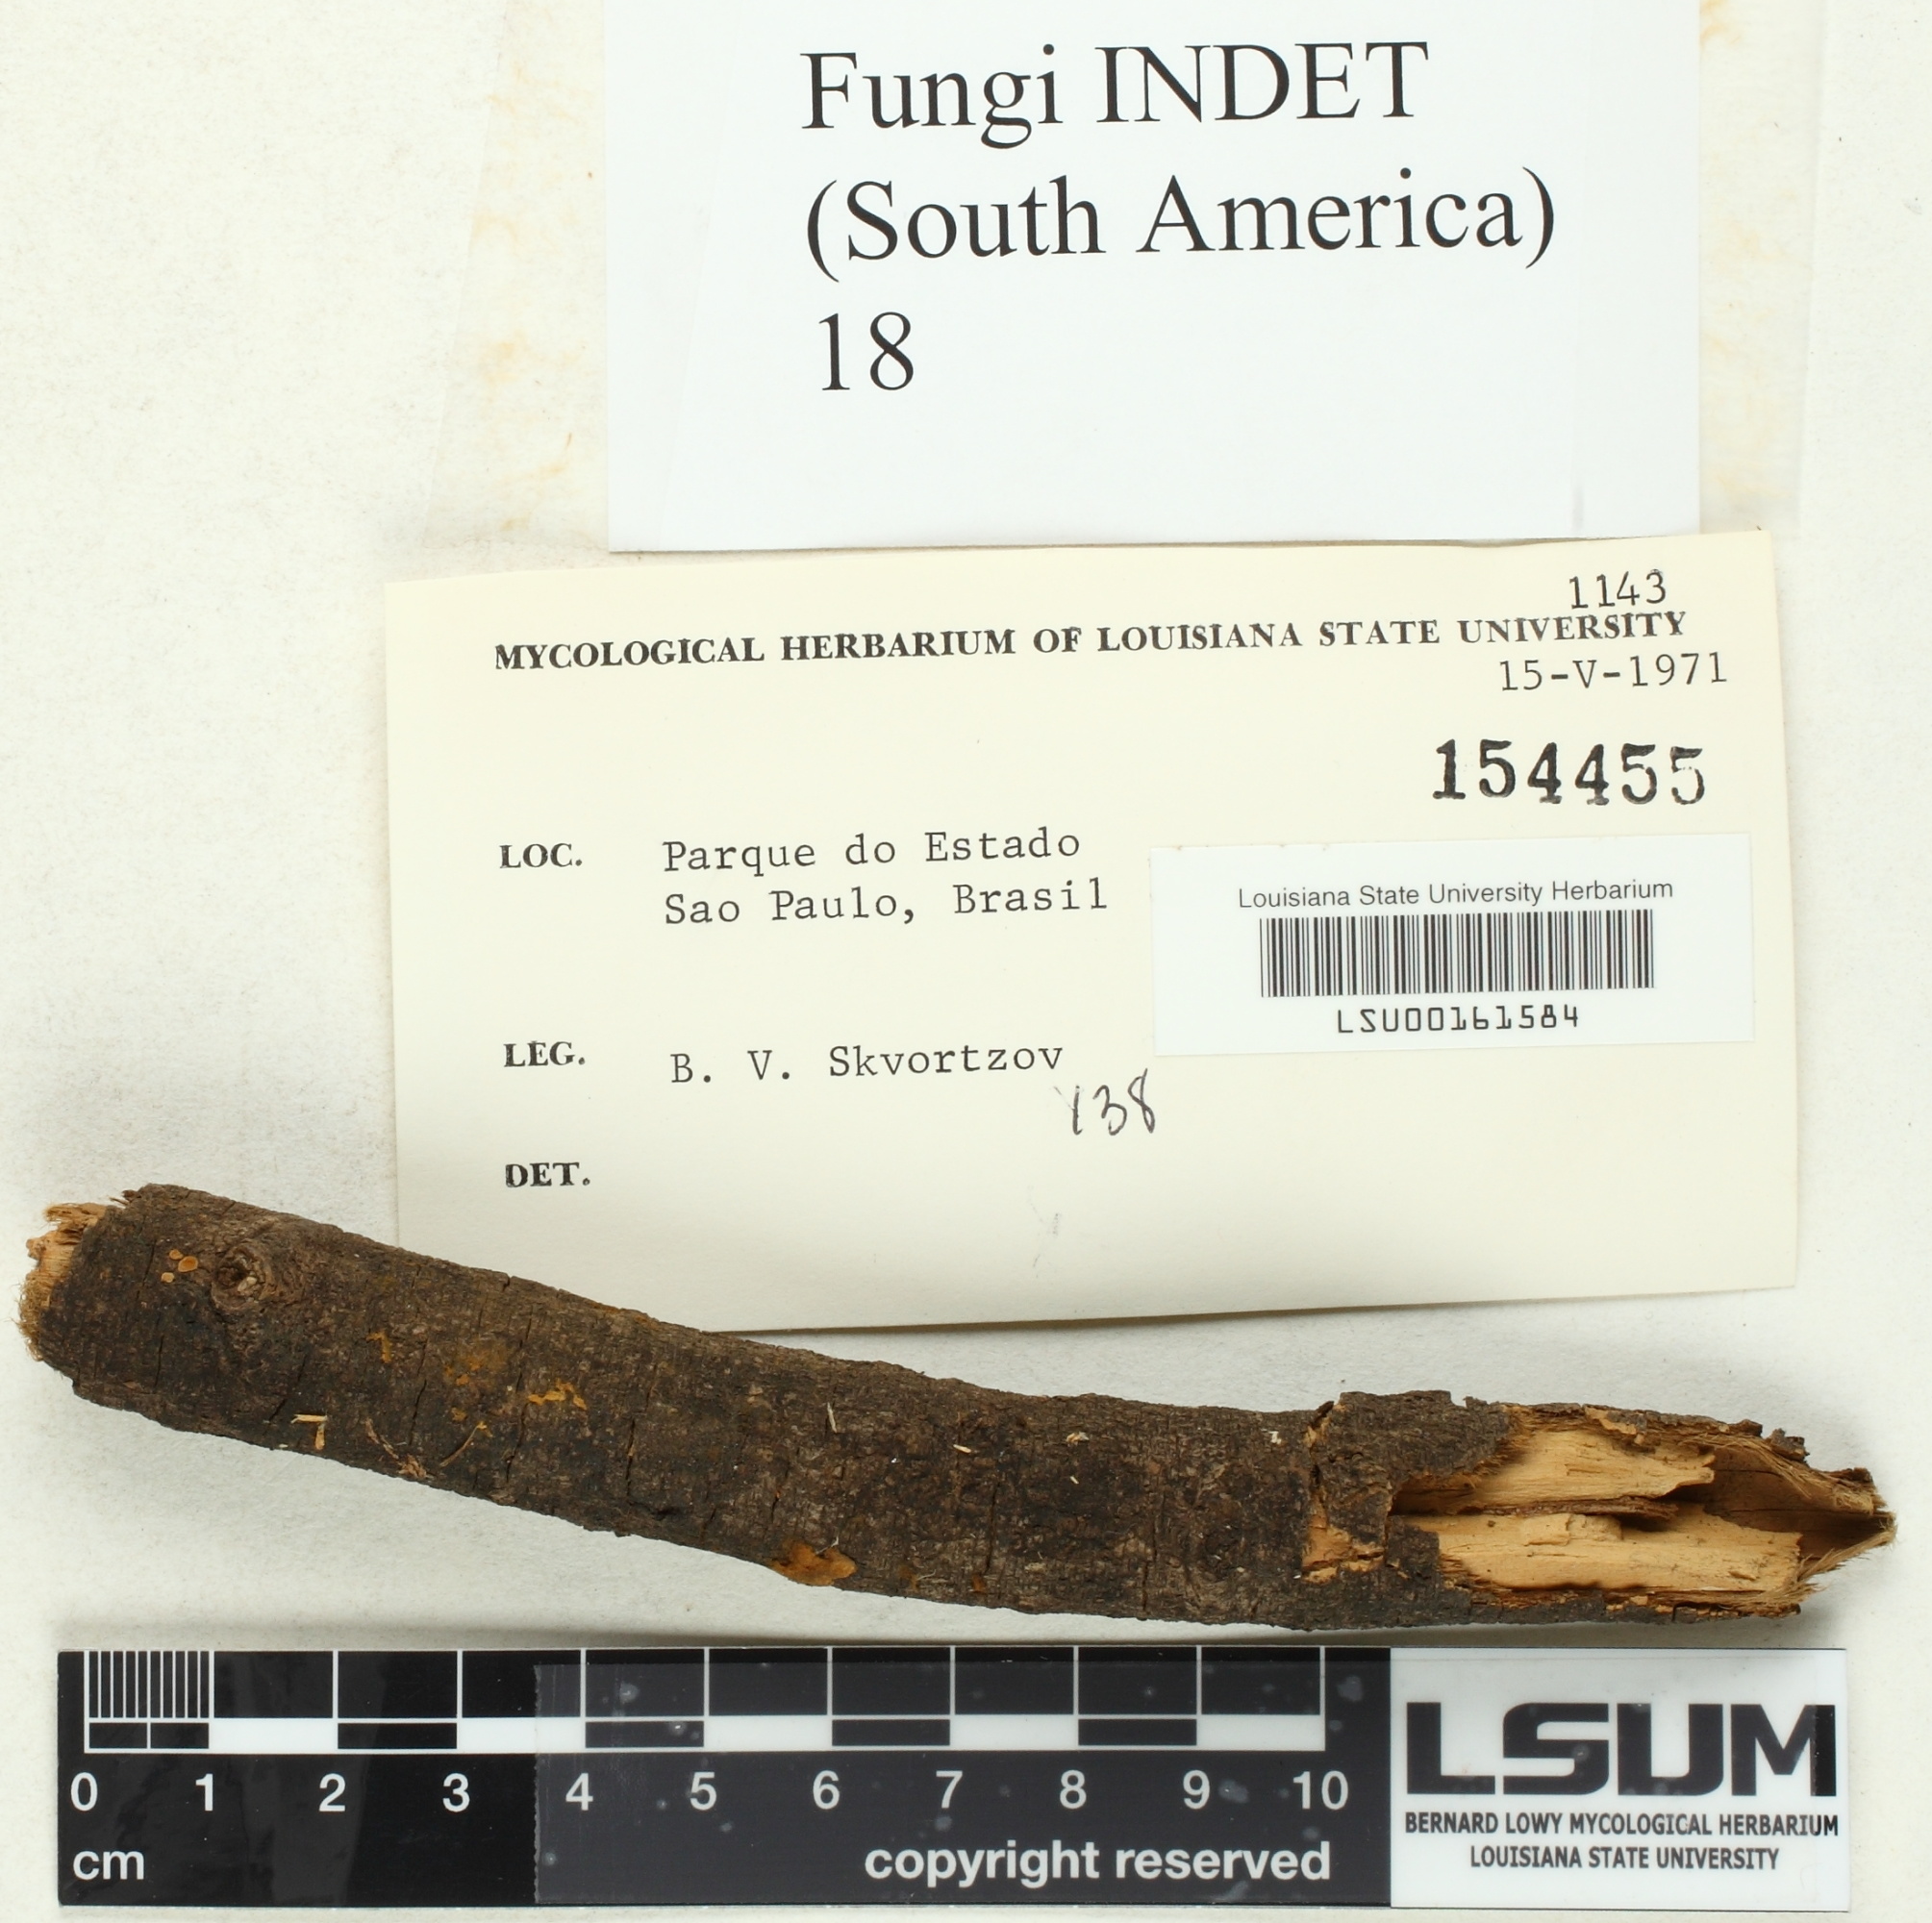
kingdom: Fungi
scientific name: Fungi
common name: Fungi
